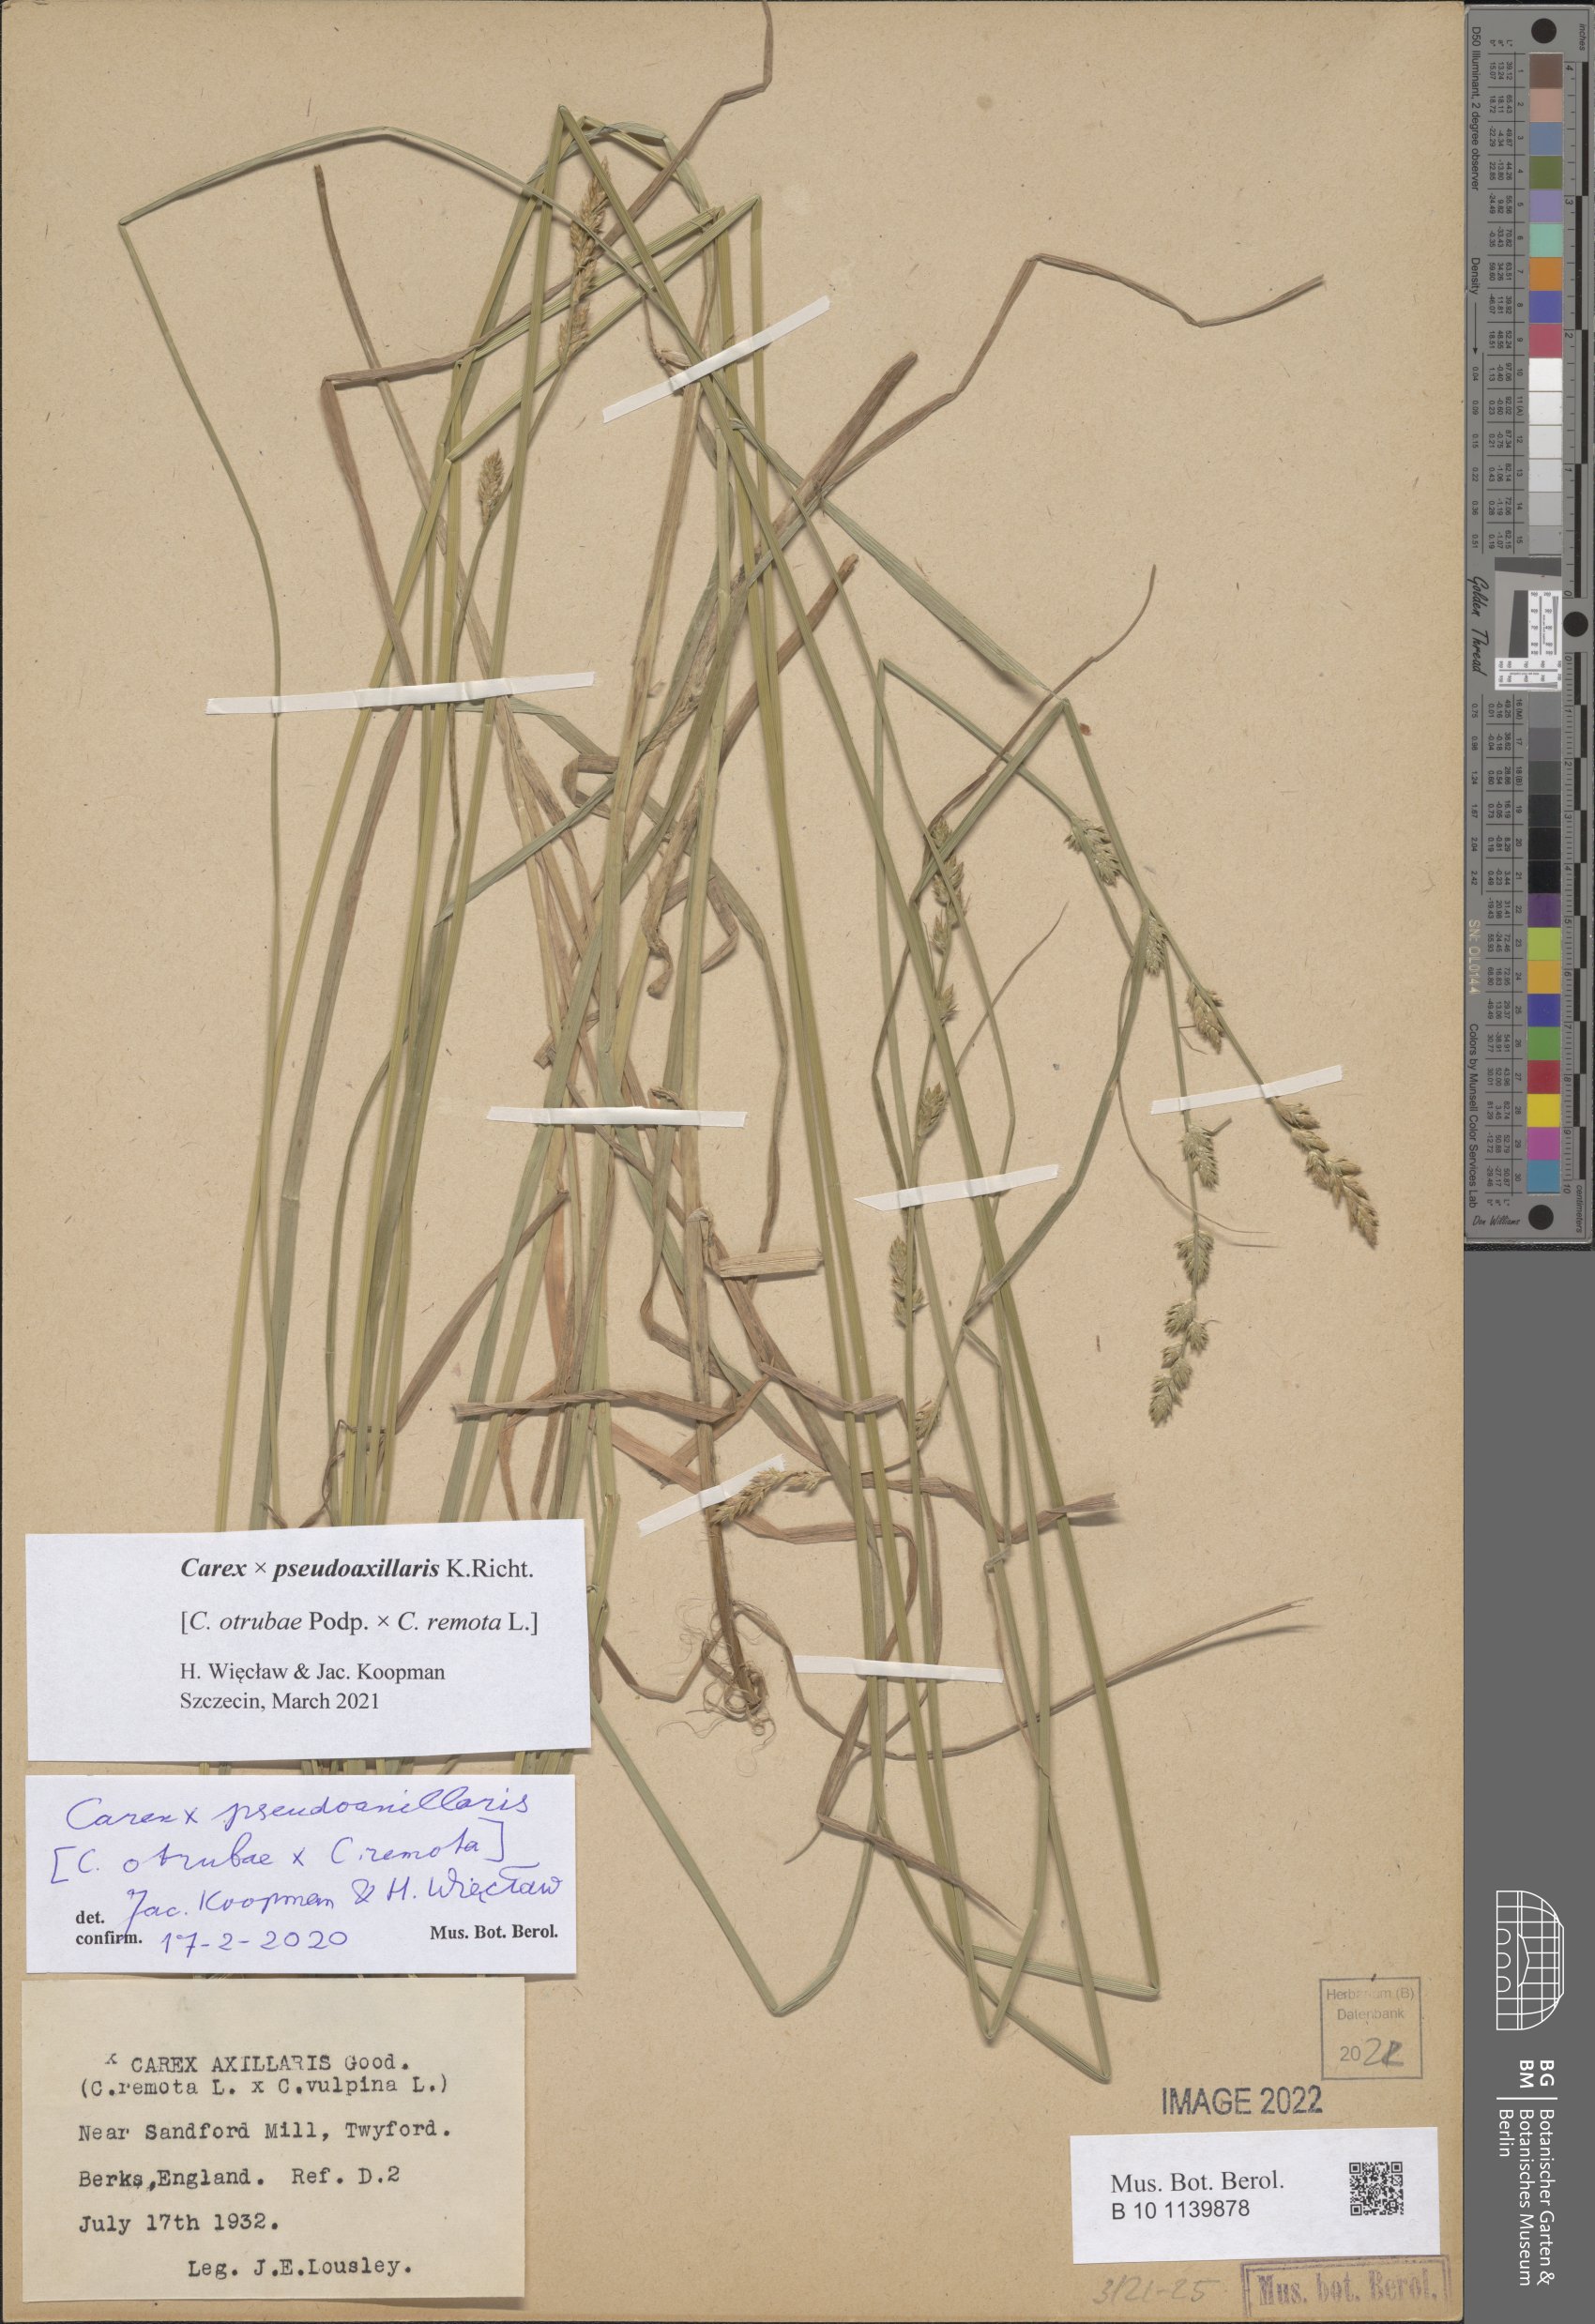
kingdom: Plantae
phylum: Tracheophyta
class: Liliopsida
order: Poales
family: Cyperaceae
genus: Carex
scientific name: Carex pseudoaxillaris
